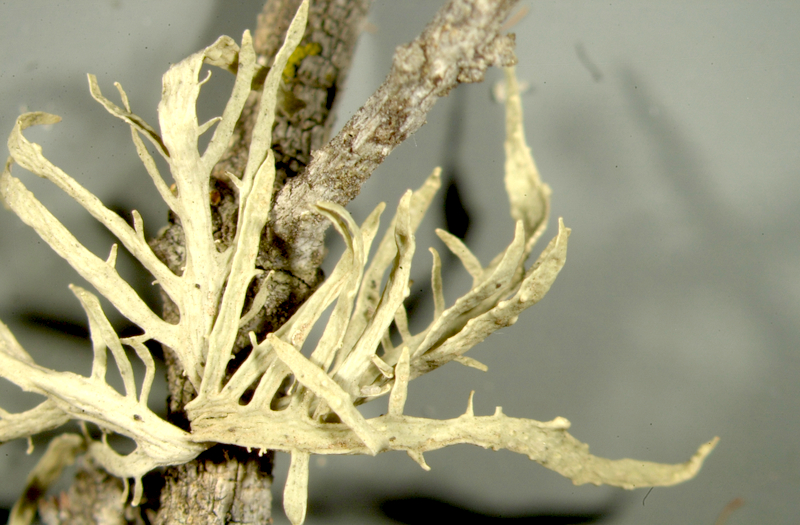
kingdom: Fungi
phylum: Ascomycota
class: Arthoniomycetes
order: Arthoniales
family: Roccellaceae
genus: Schismatomma
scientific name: Schismatomma
